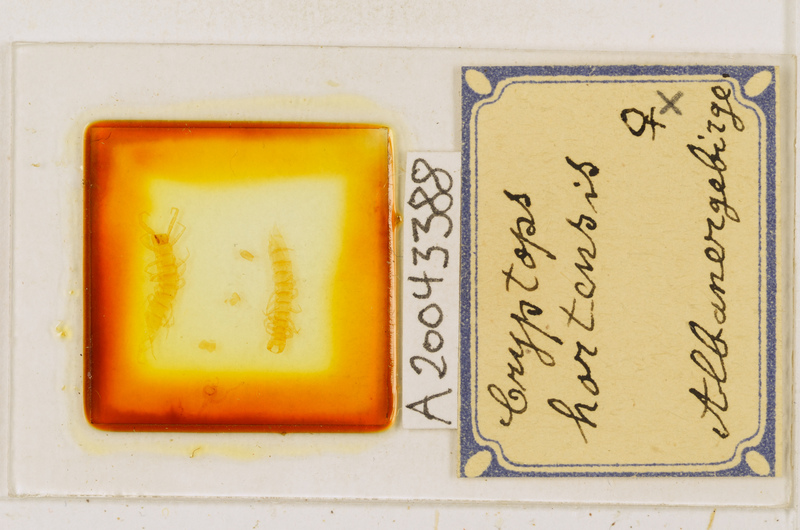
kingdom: Animalia
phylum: Arthropoda
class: Chilopoda
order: Scolopendromorpha
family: Cryptopidae
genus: Cryptops
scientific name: Cryptops hortensis
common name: Centipede
